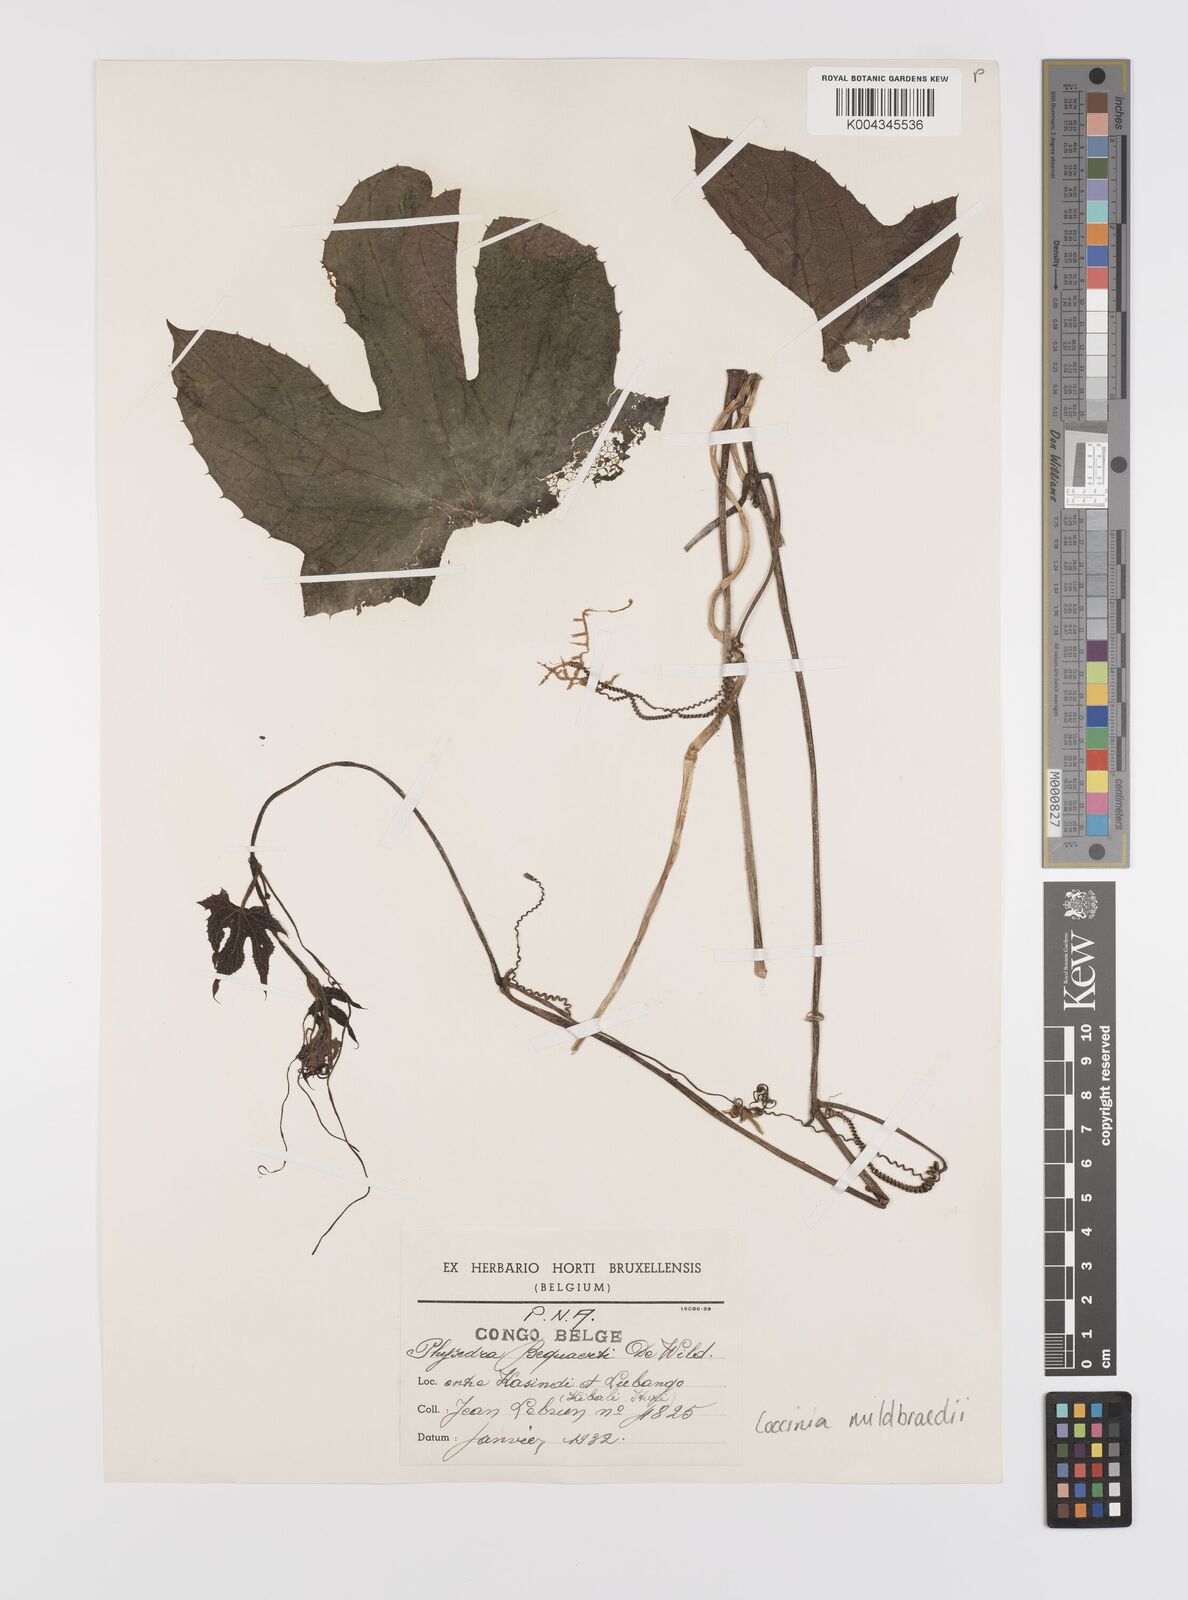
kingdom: Plantae
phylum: Tracheophyta
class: Magnoliopsida
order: Cucurbitales
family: Cucurbitaceae
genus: Coccinia
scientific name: Coccinia mildbraedii
